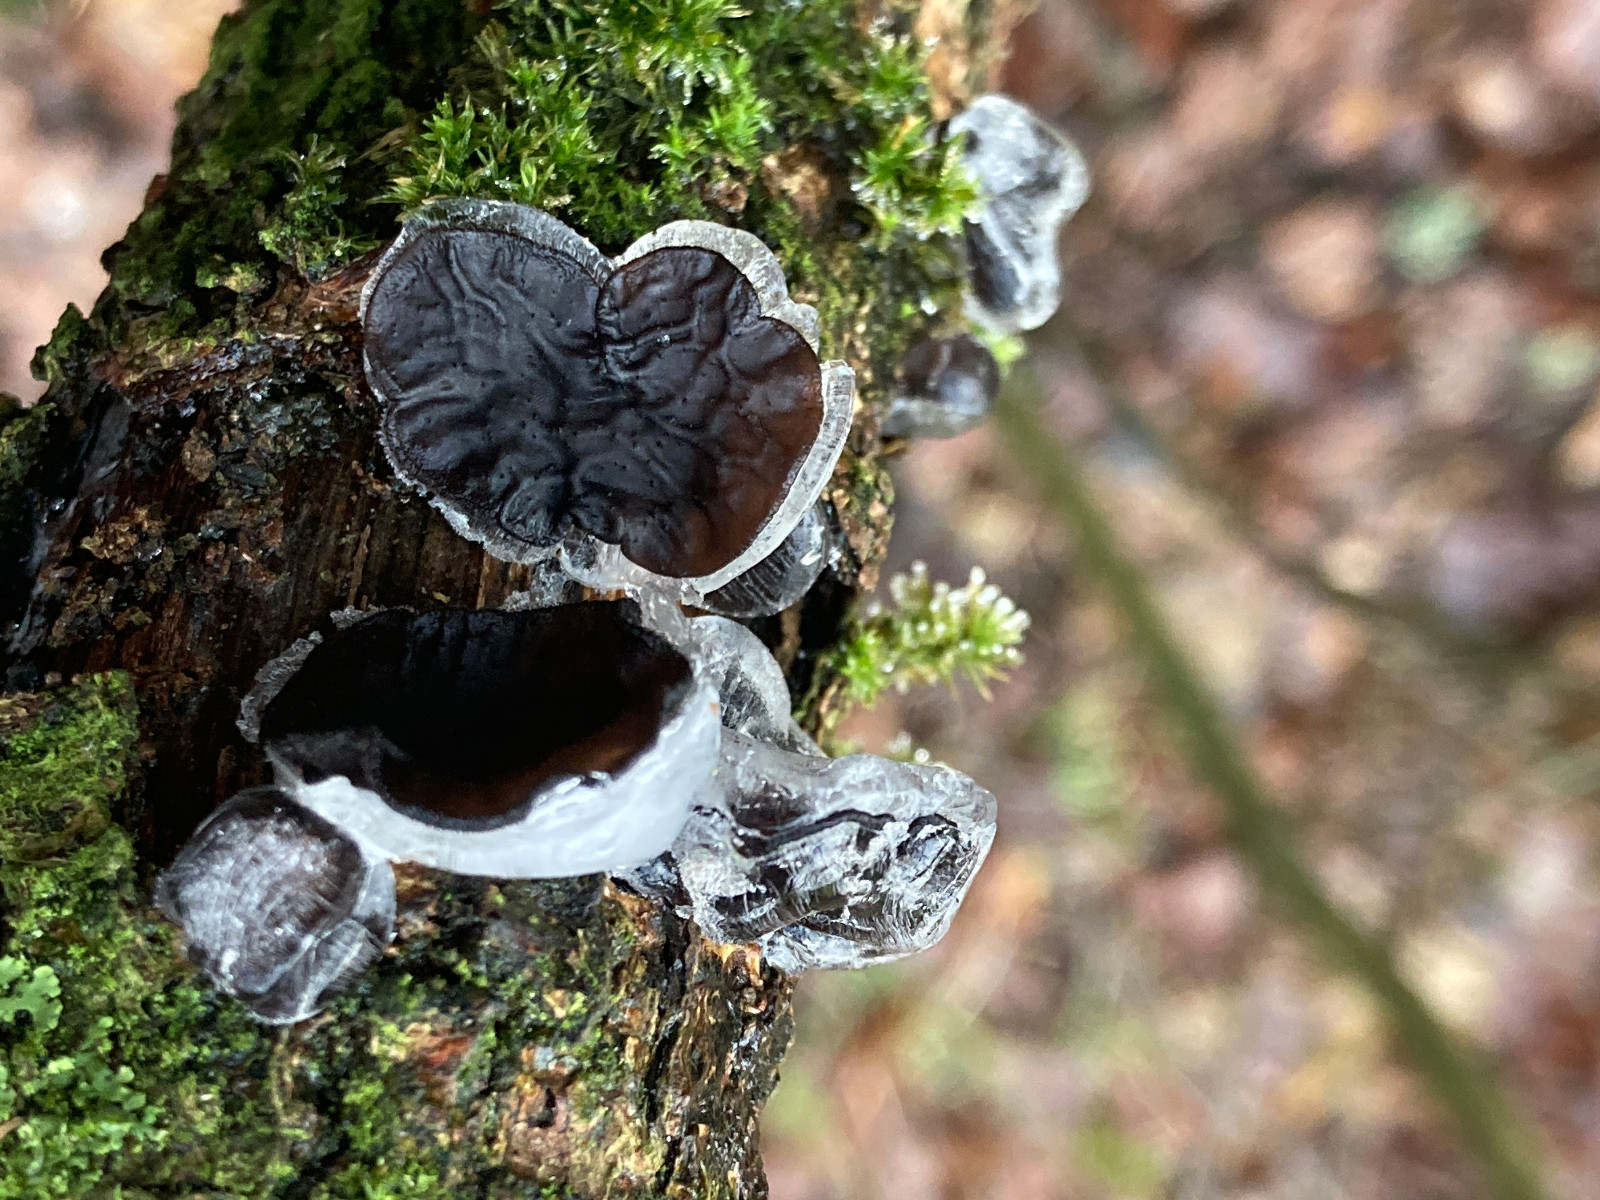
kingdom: Fungi
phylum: Basidiomycota
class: Agaricomycetes
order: Auriculariales
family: Auriculariaceae
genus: Exidia
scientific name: Exidia glandulosa
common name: ege-bævretop
